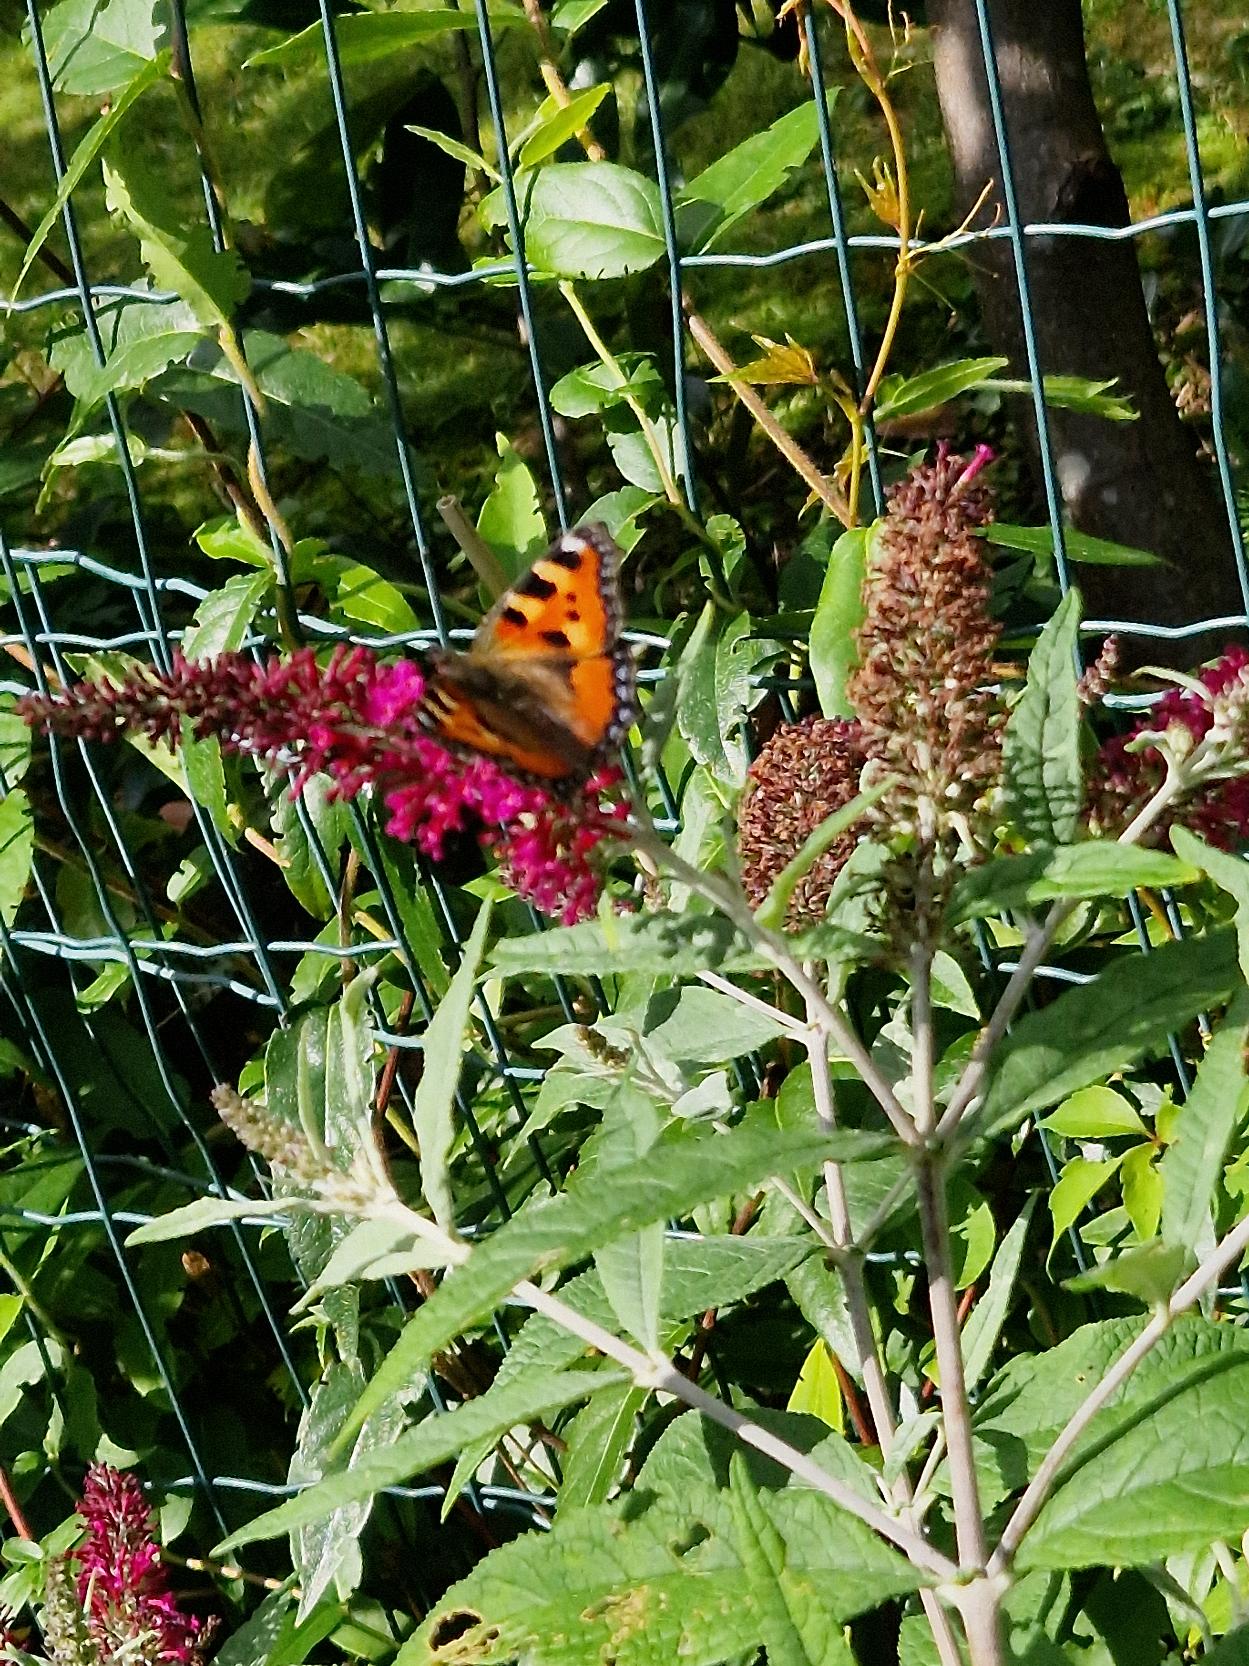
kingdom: Animalia
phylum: Arthropoda
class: Insecta
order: Lepidoptera
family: Nymphalidae
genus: Aglais
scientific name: Aglais urticae
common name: Nældens takvinge
